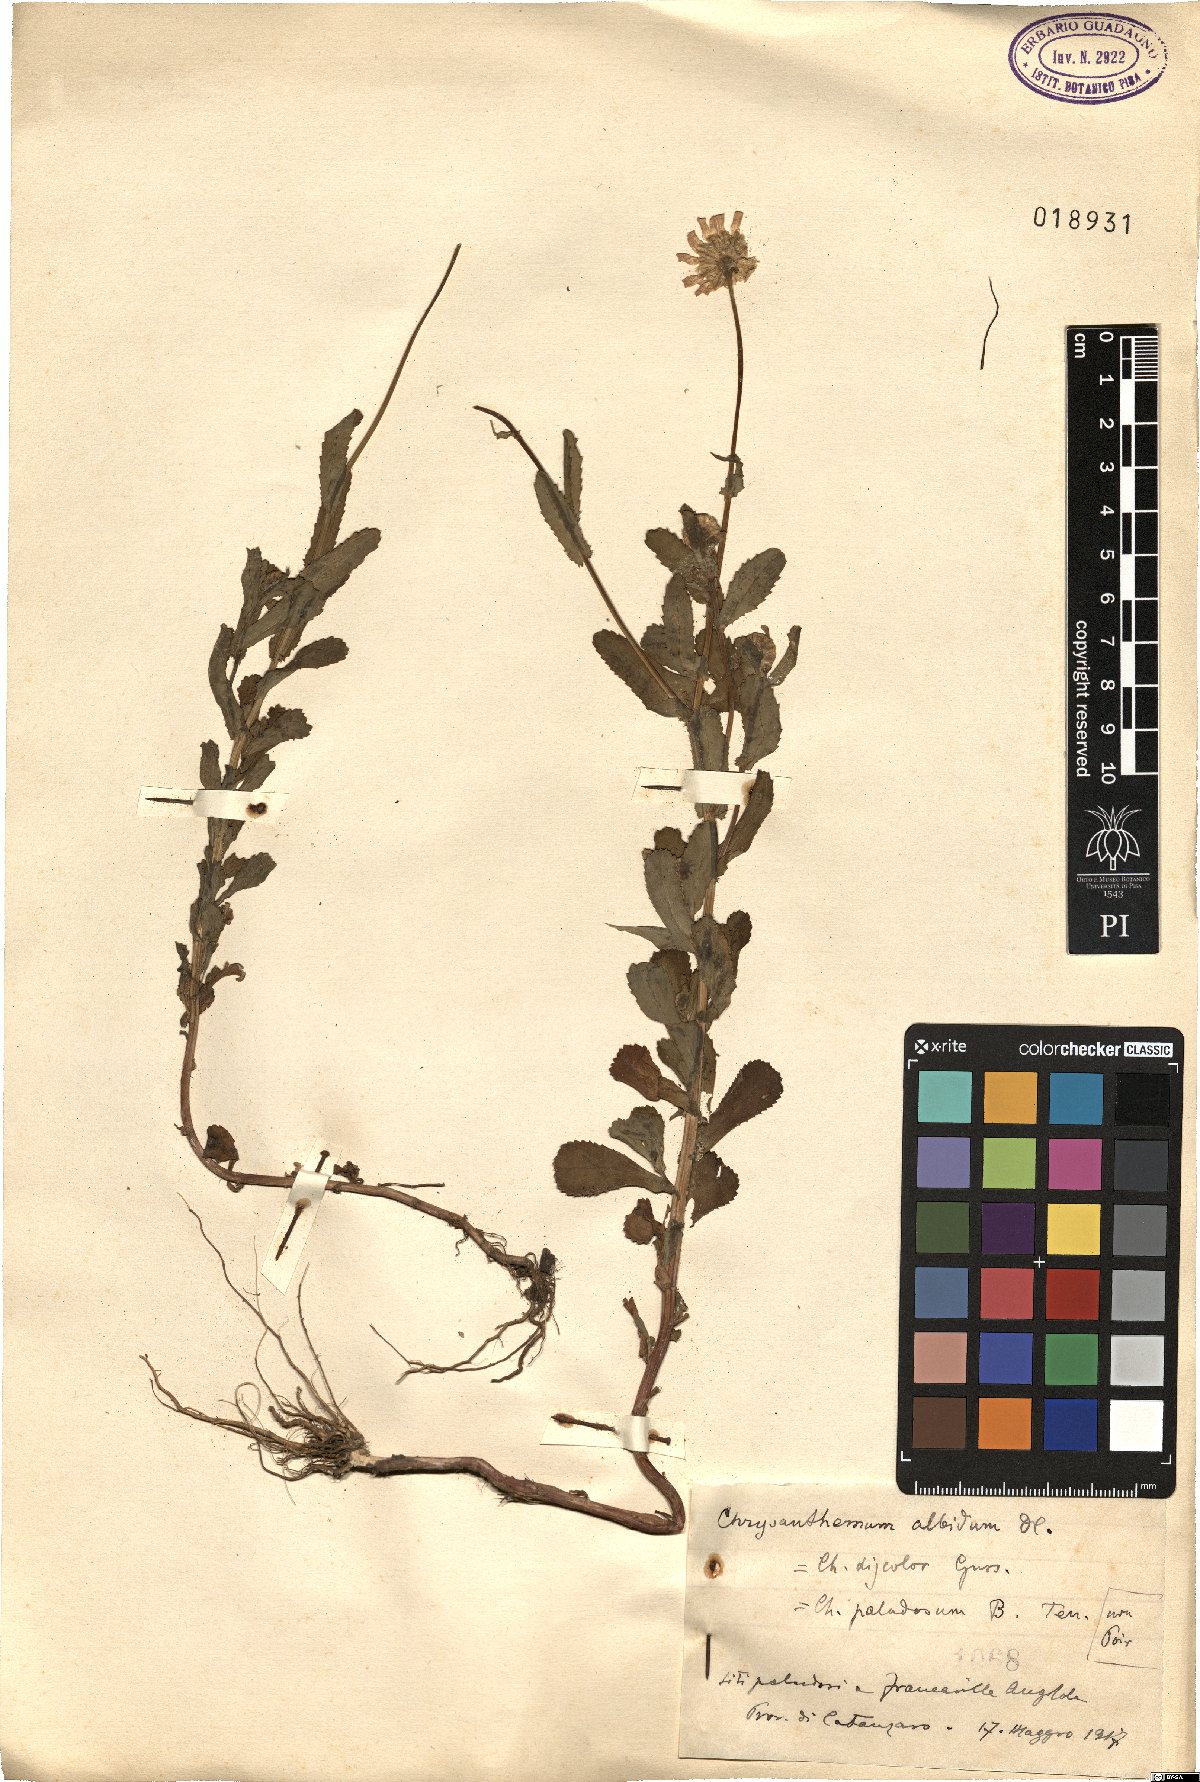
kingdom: Plantae
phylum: Tracheophyta
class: Magnoliopsida
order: Asterales
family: Asteraceae
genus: Leucanthemum
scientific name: Leucanthemum pallens
